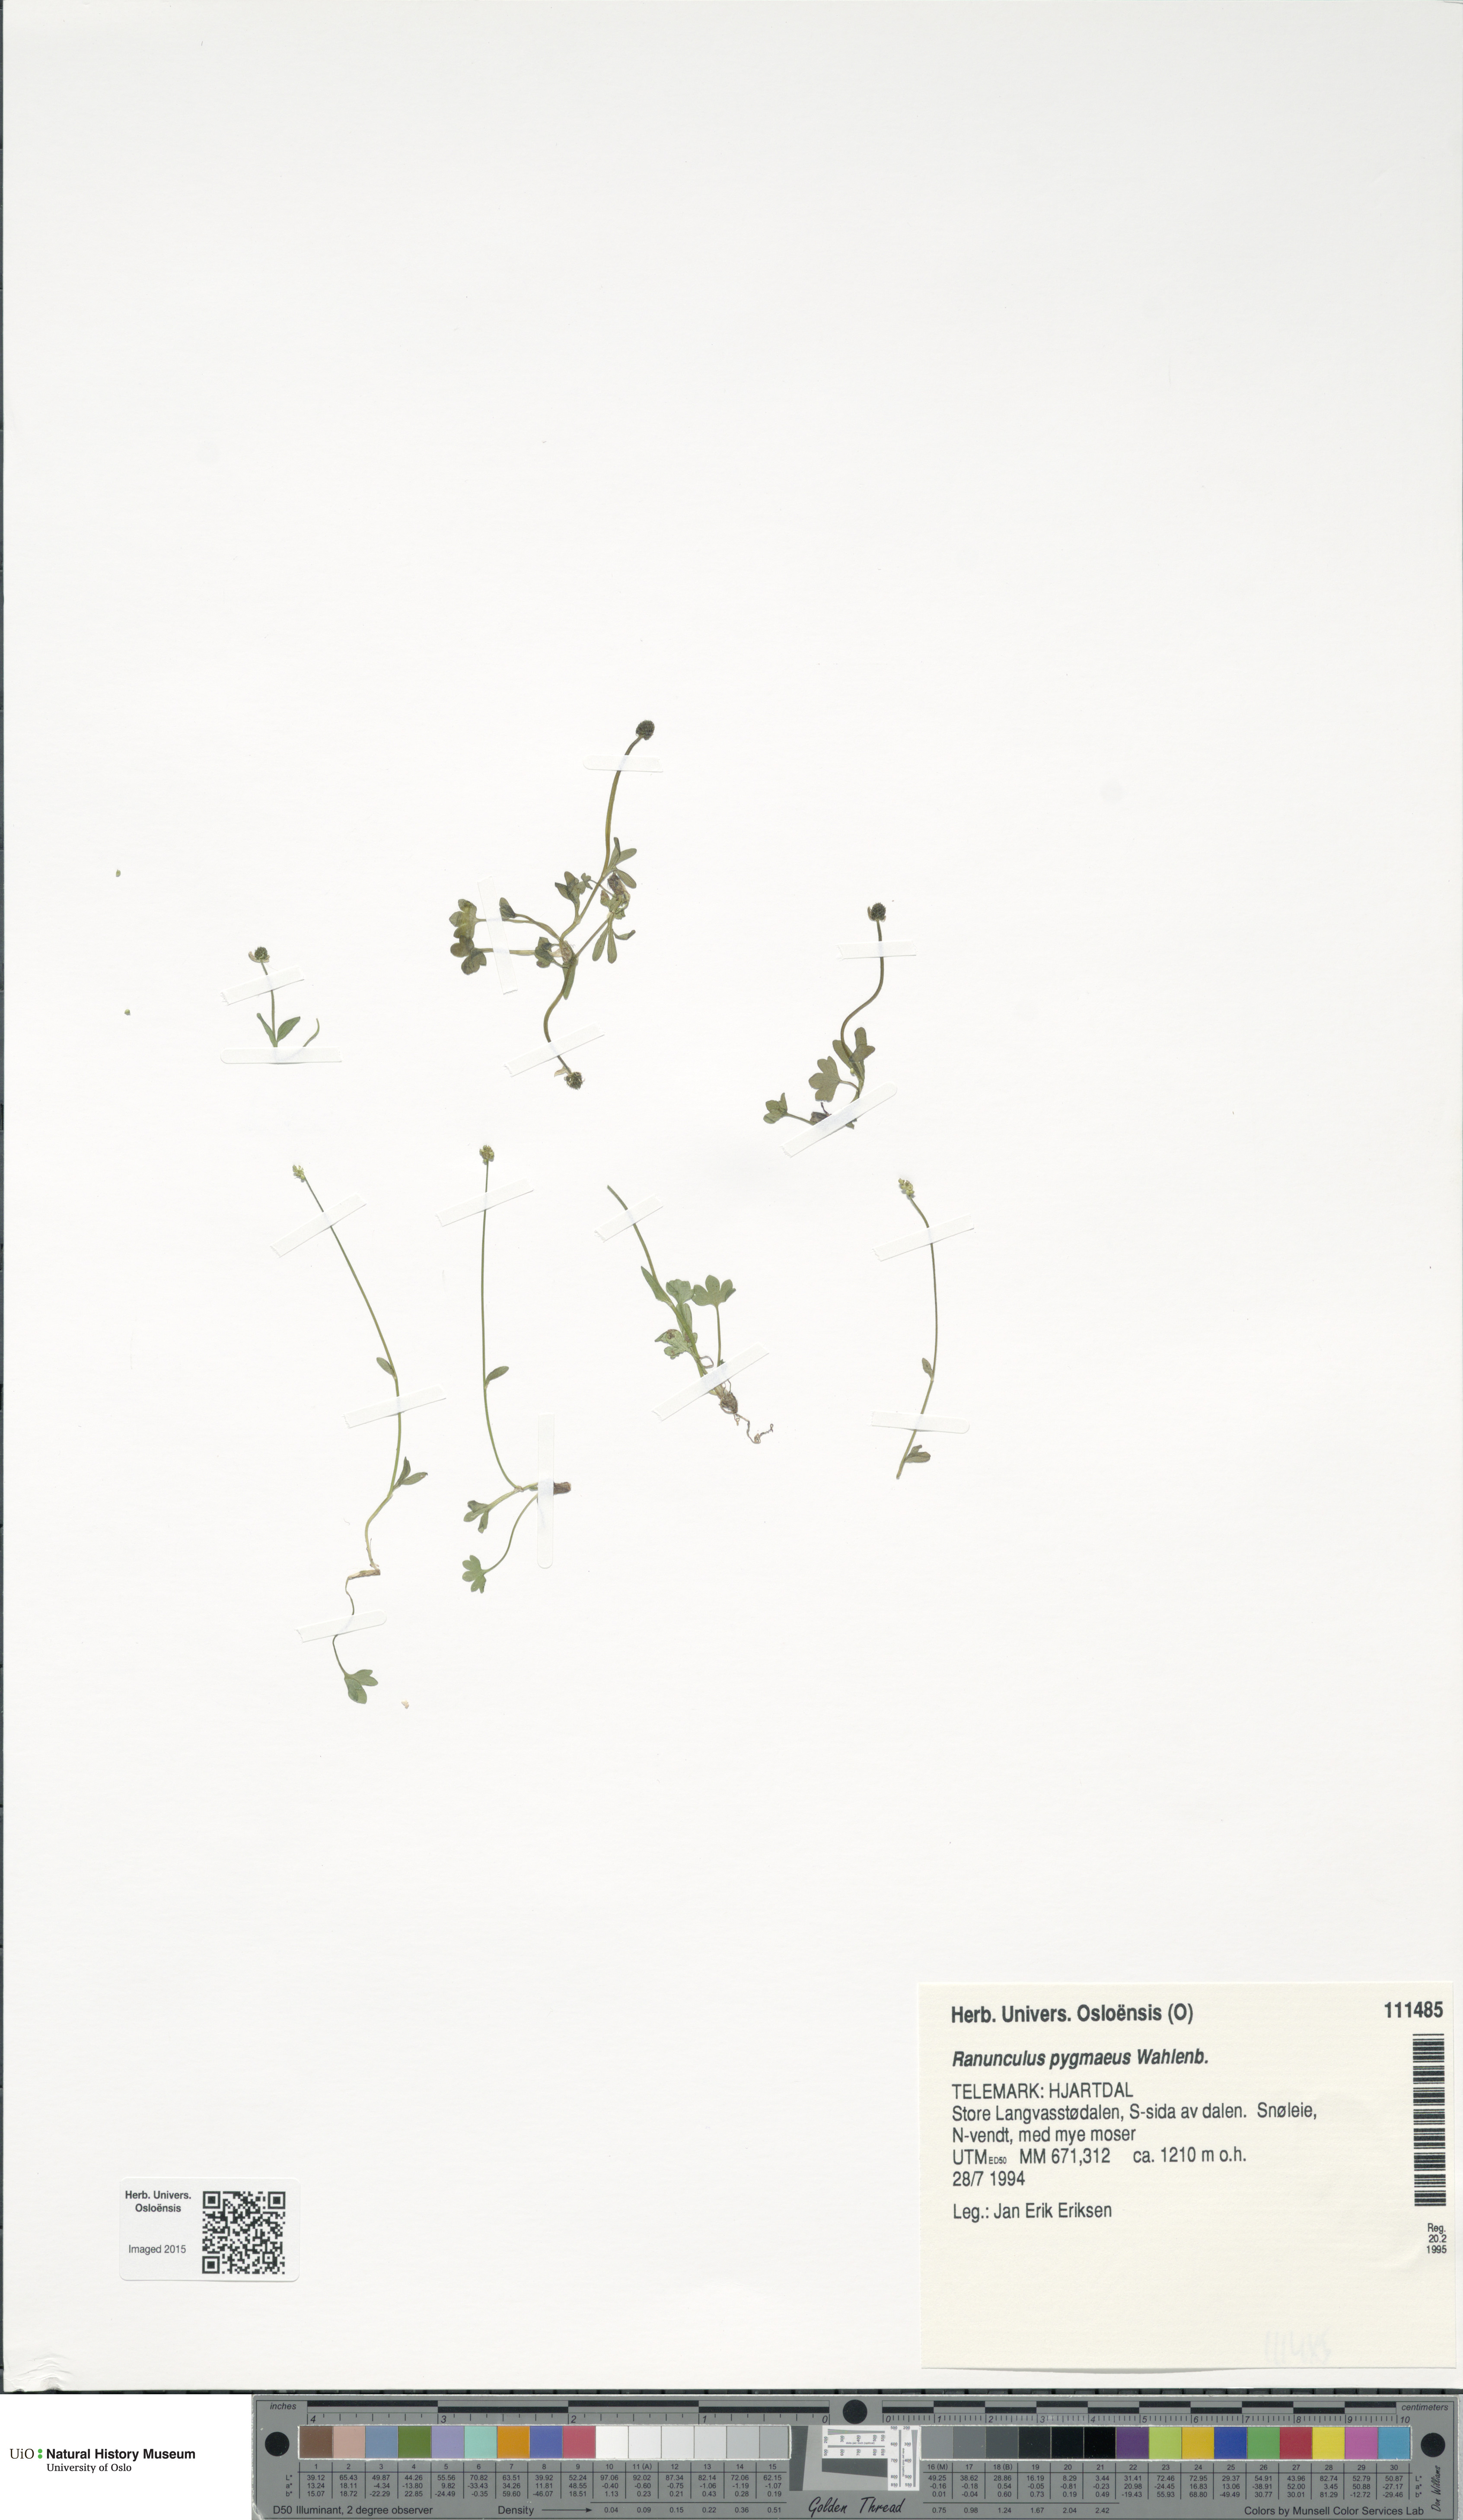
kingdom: Plantae
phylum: Tracheophyta
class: Magnoliopsida
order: Ranunculales
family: Ranunculaceae
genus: Ranunculus
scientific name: Ranunculus pygmaeus
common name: Dwarf buttercup
